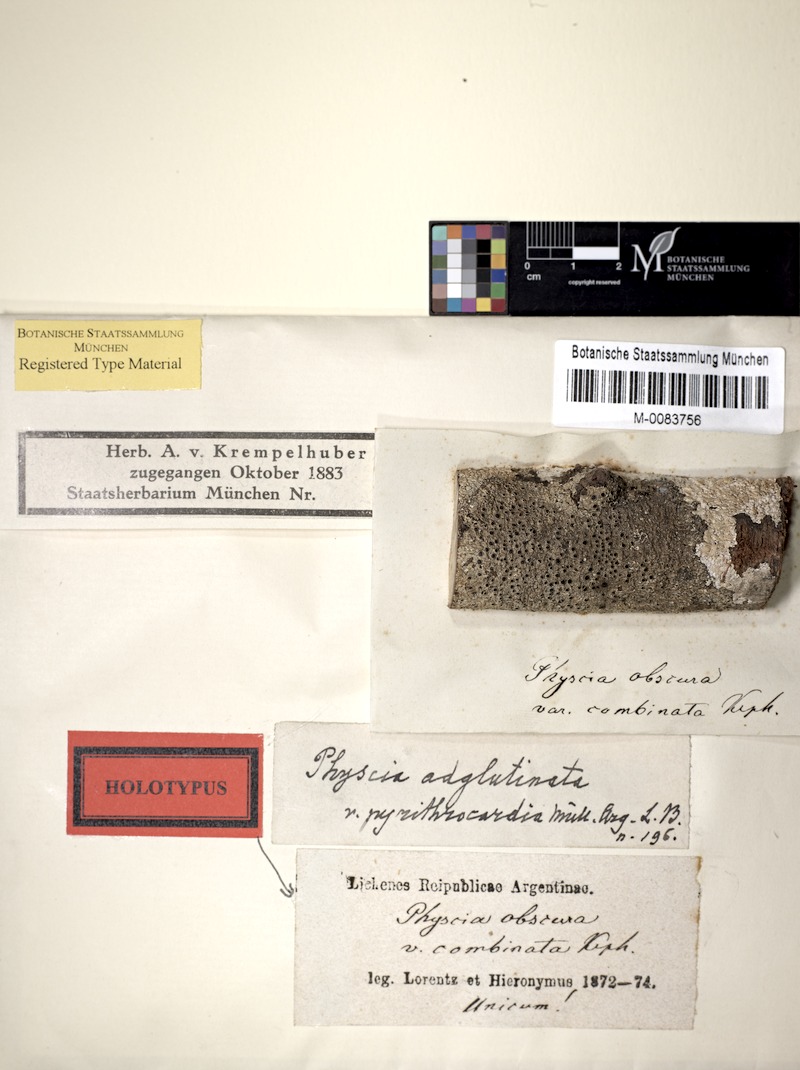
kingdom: Fungi
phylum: Ascomycota
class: Lecanoromycetes
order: Caliciales
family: Physciaceae
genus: Hyperphyscia
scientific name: Hyperphyscia adglutinata
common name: Grainy shadow-crust lichen
